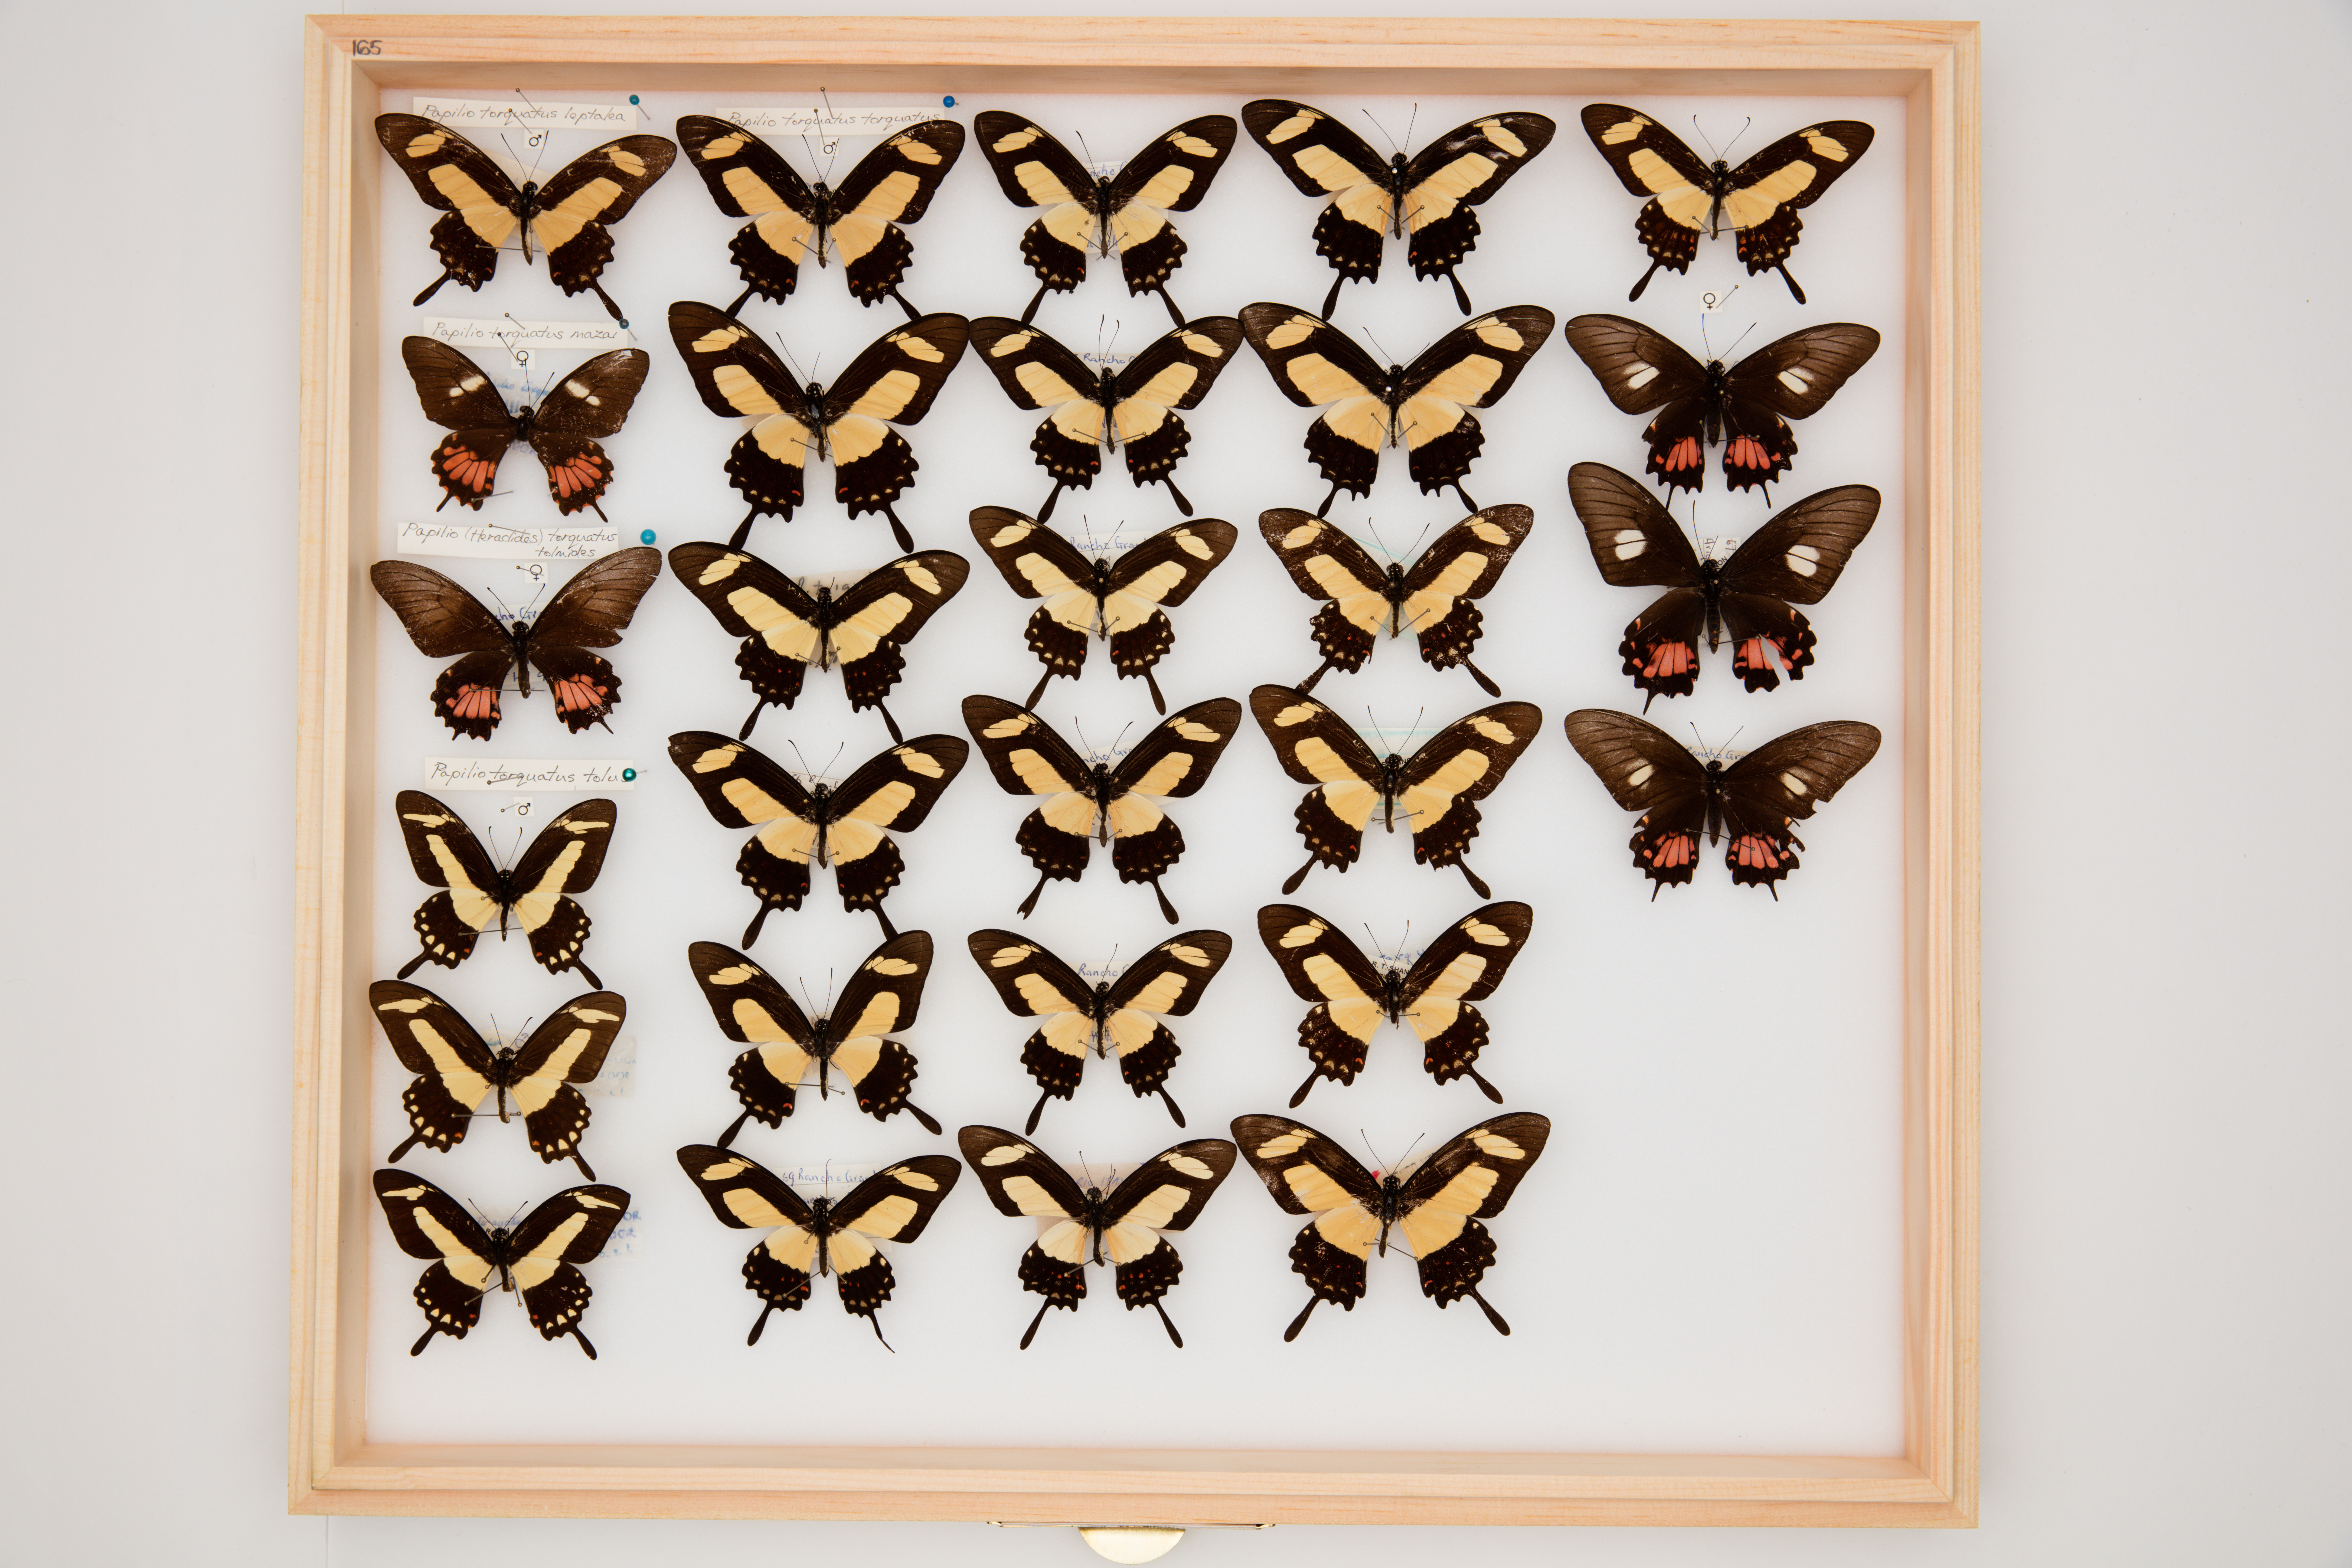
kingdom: Animalia
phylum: Arthropoda
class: Insecta
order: Lepidoptera
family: Papilionidae
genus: Papilio
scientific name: Papilio torquatus
